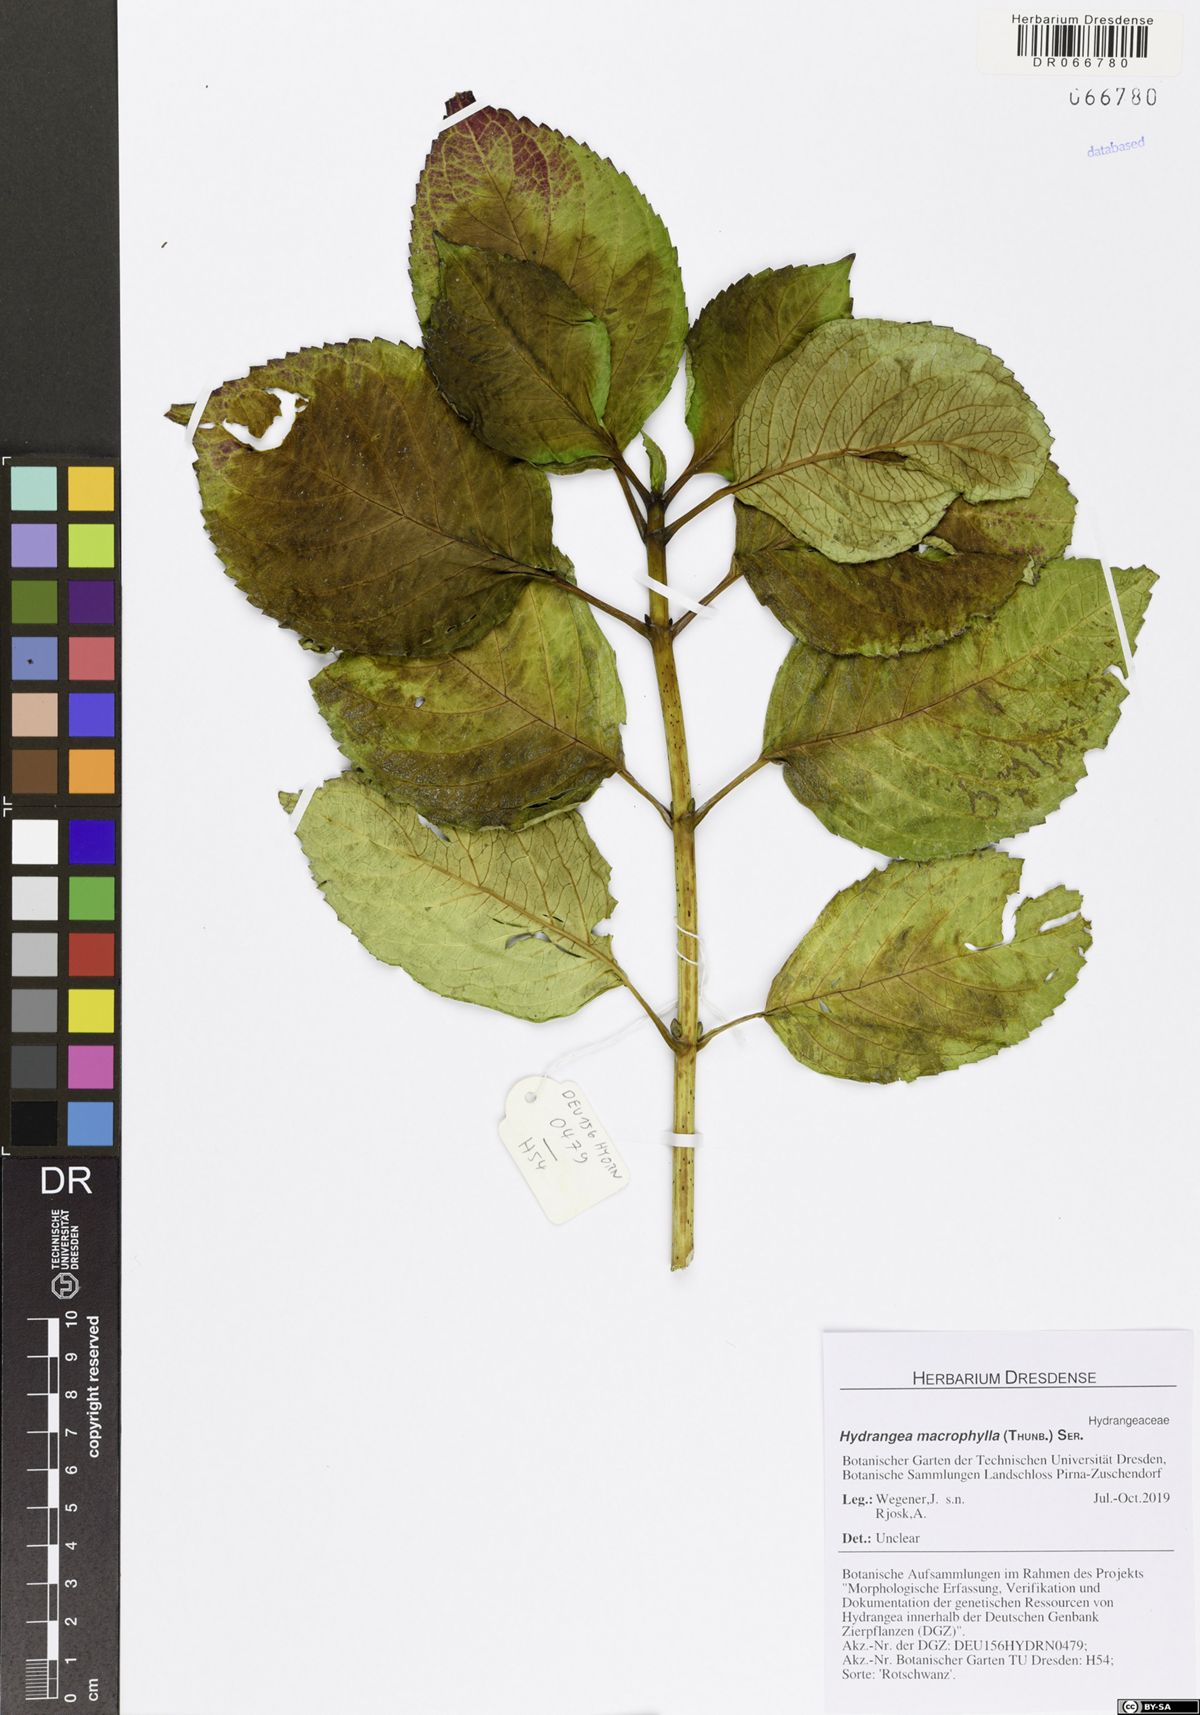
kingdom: Plantae
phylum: Tracheophyta
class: Magnoliopsida
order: Cornales
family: Hydrangeaceae
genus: Hydrangea
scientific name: Hydrangea macrophylla
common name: Hydrangea
